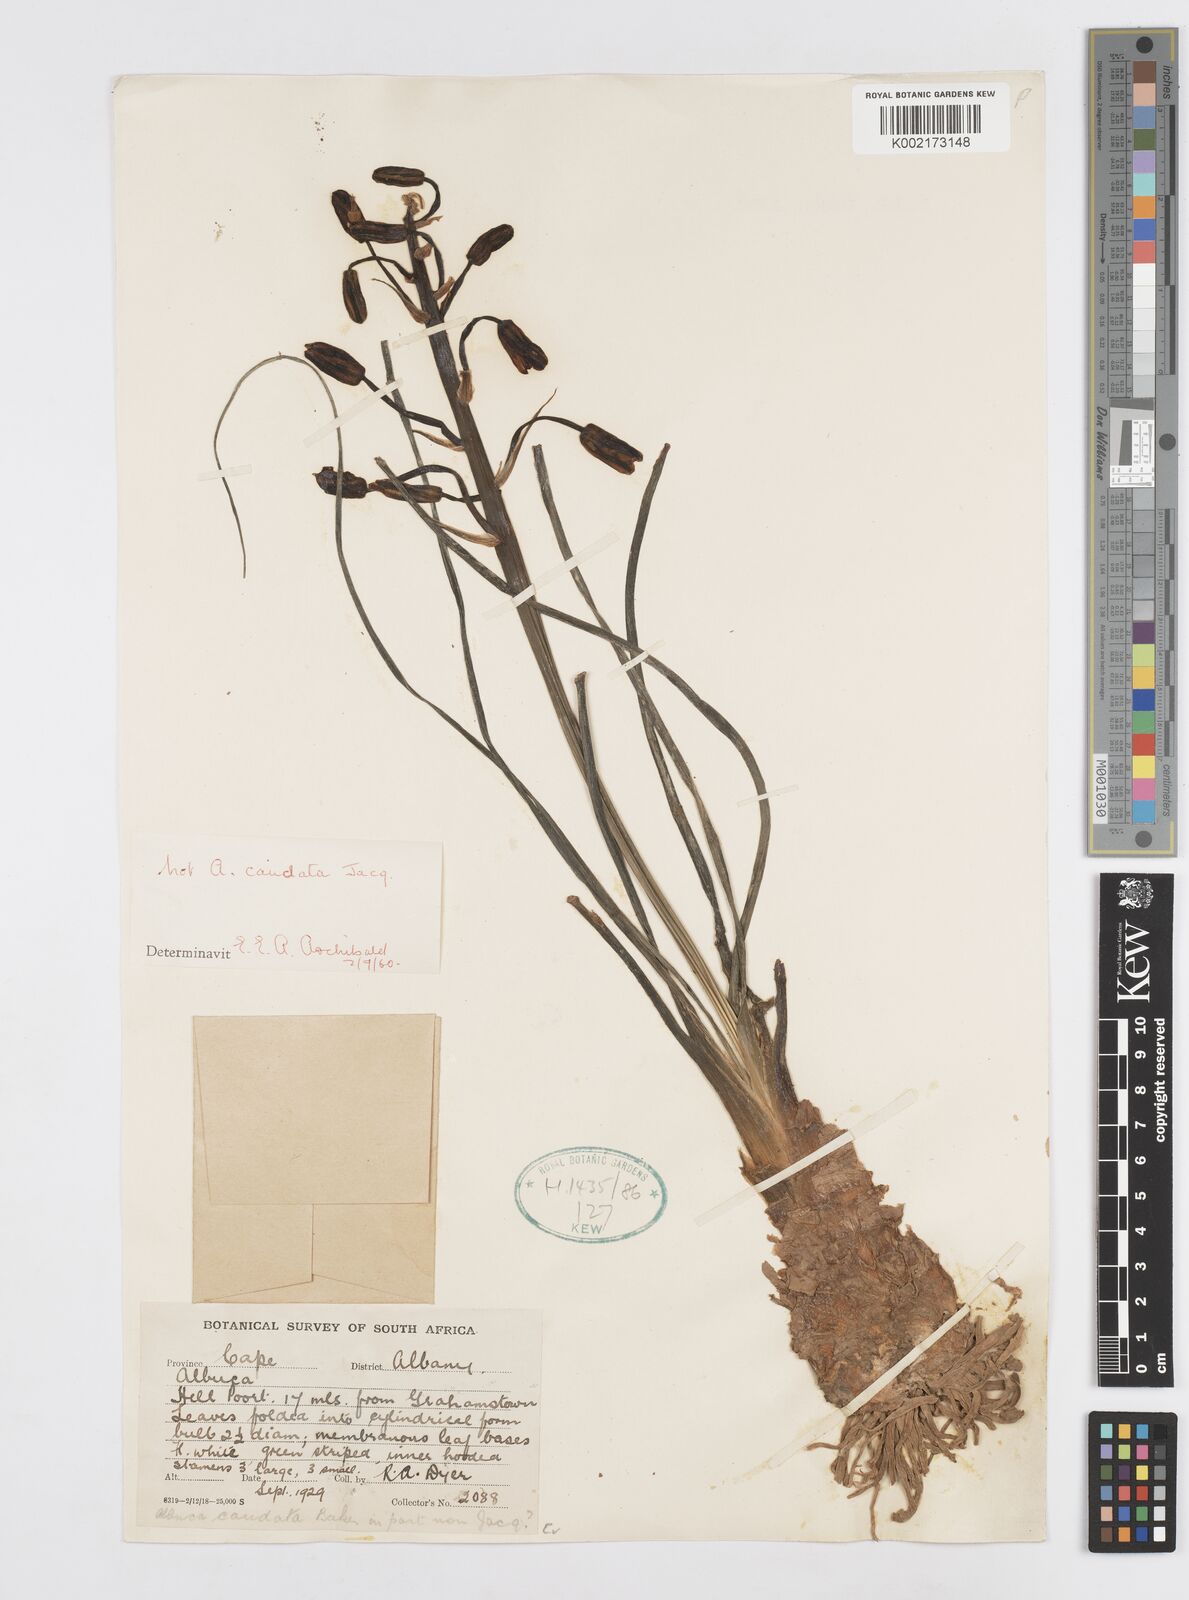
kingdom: Plantae
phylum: Tracheophyta
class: Liliopsida
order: Asparagales
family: Asparagaceae
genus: Albuca
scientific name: Albuca
